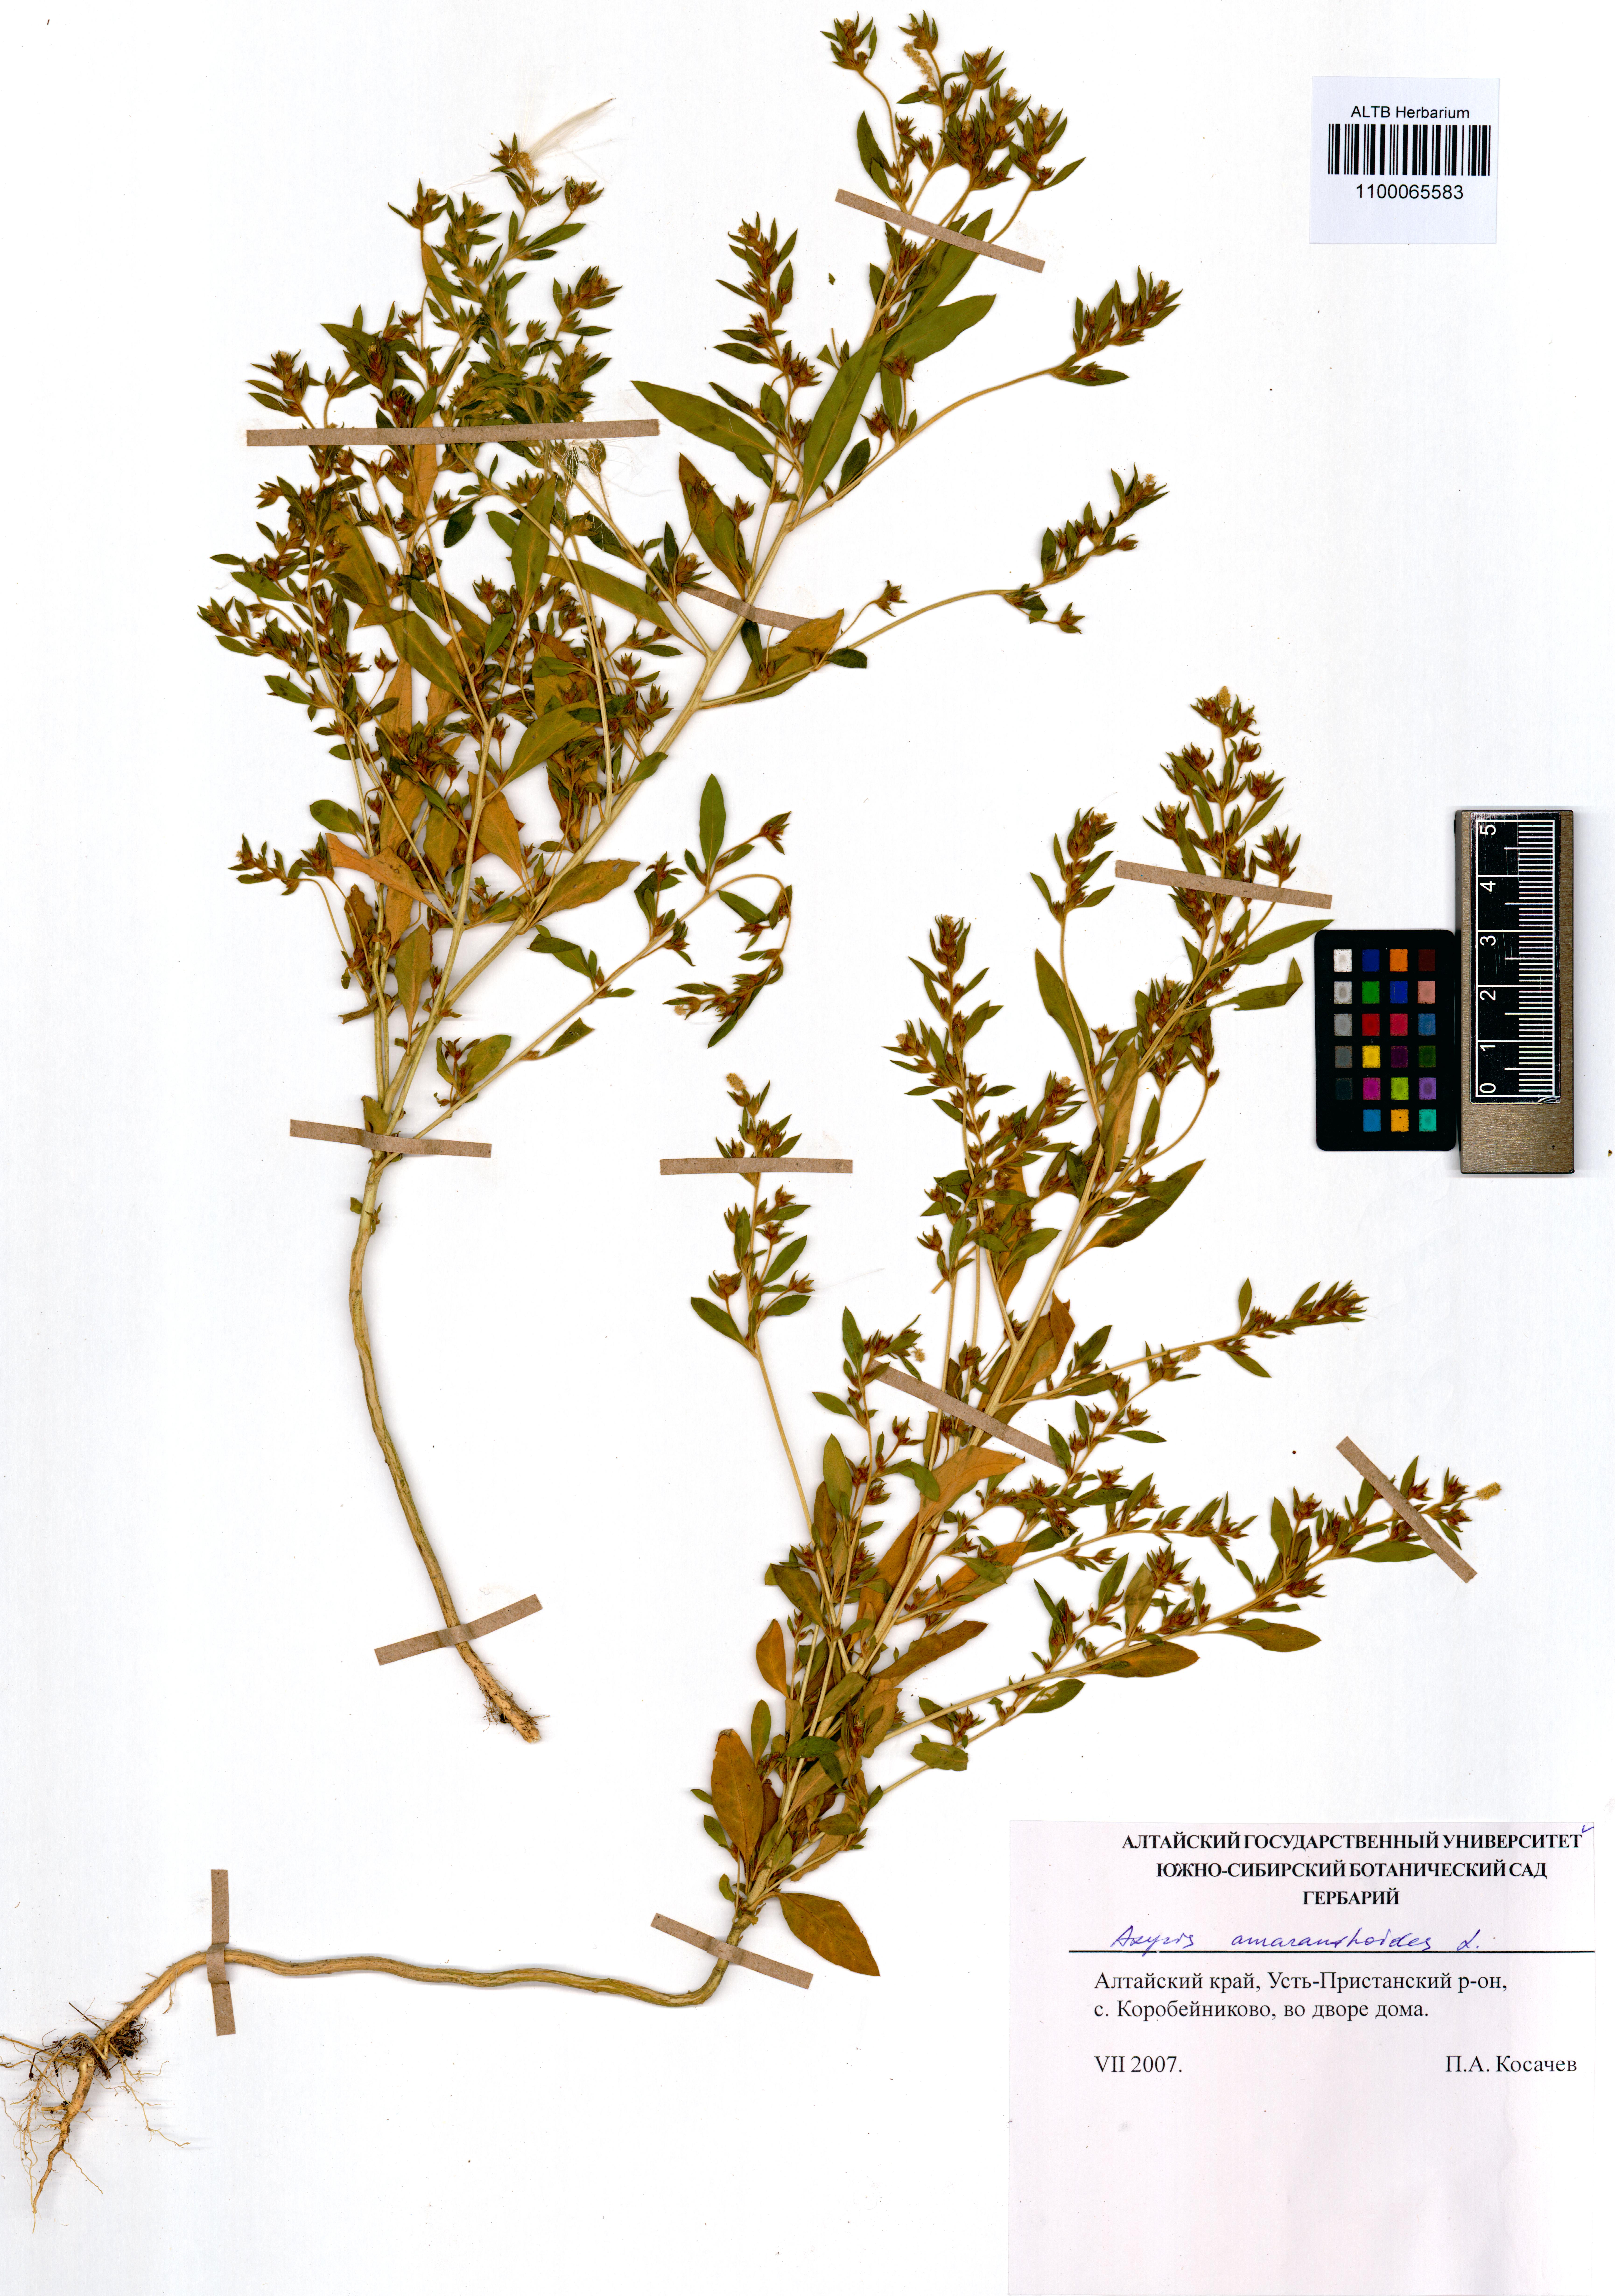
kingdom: Plantae
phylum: Tracheophyta
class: Magnoliopsida
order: Caryophyllales
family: Amaranthaceae
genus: Axyris
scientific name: Axyris amaranthoides
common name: Russian pigweed
